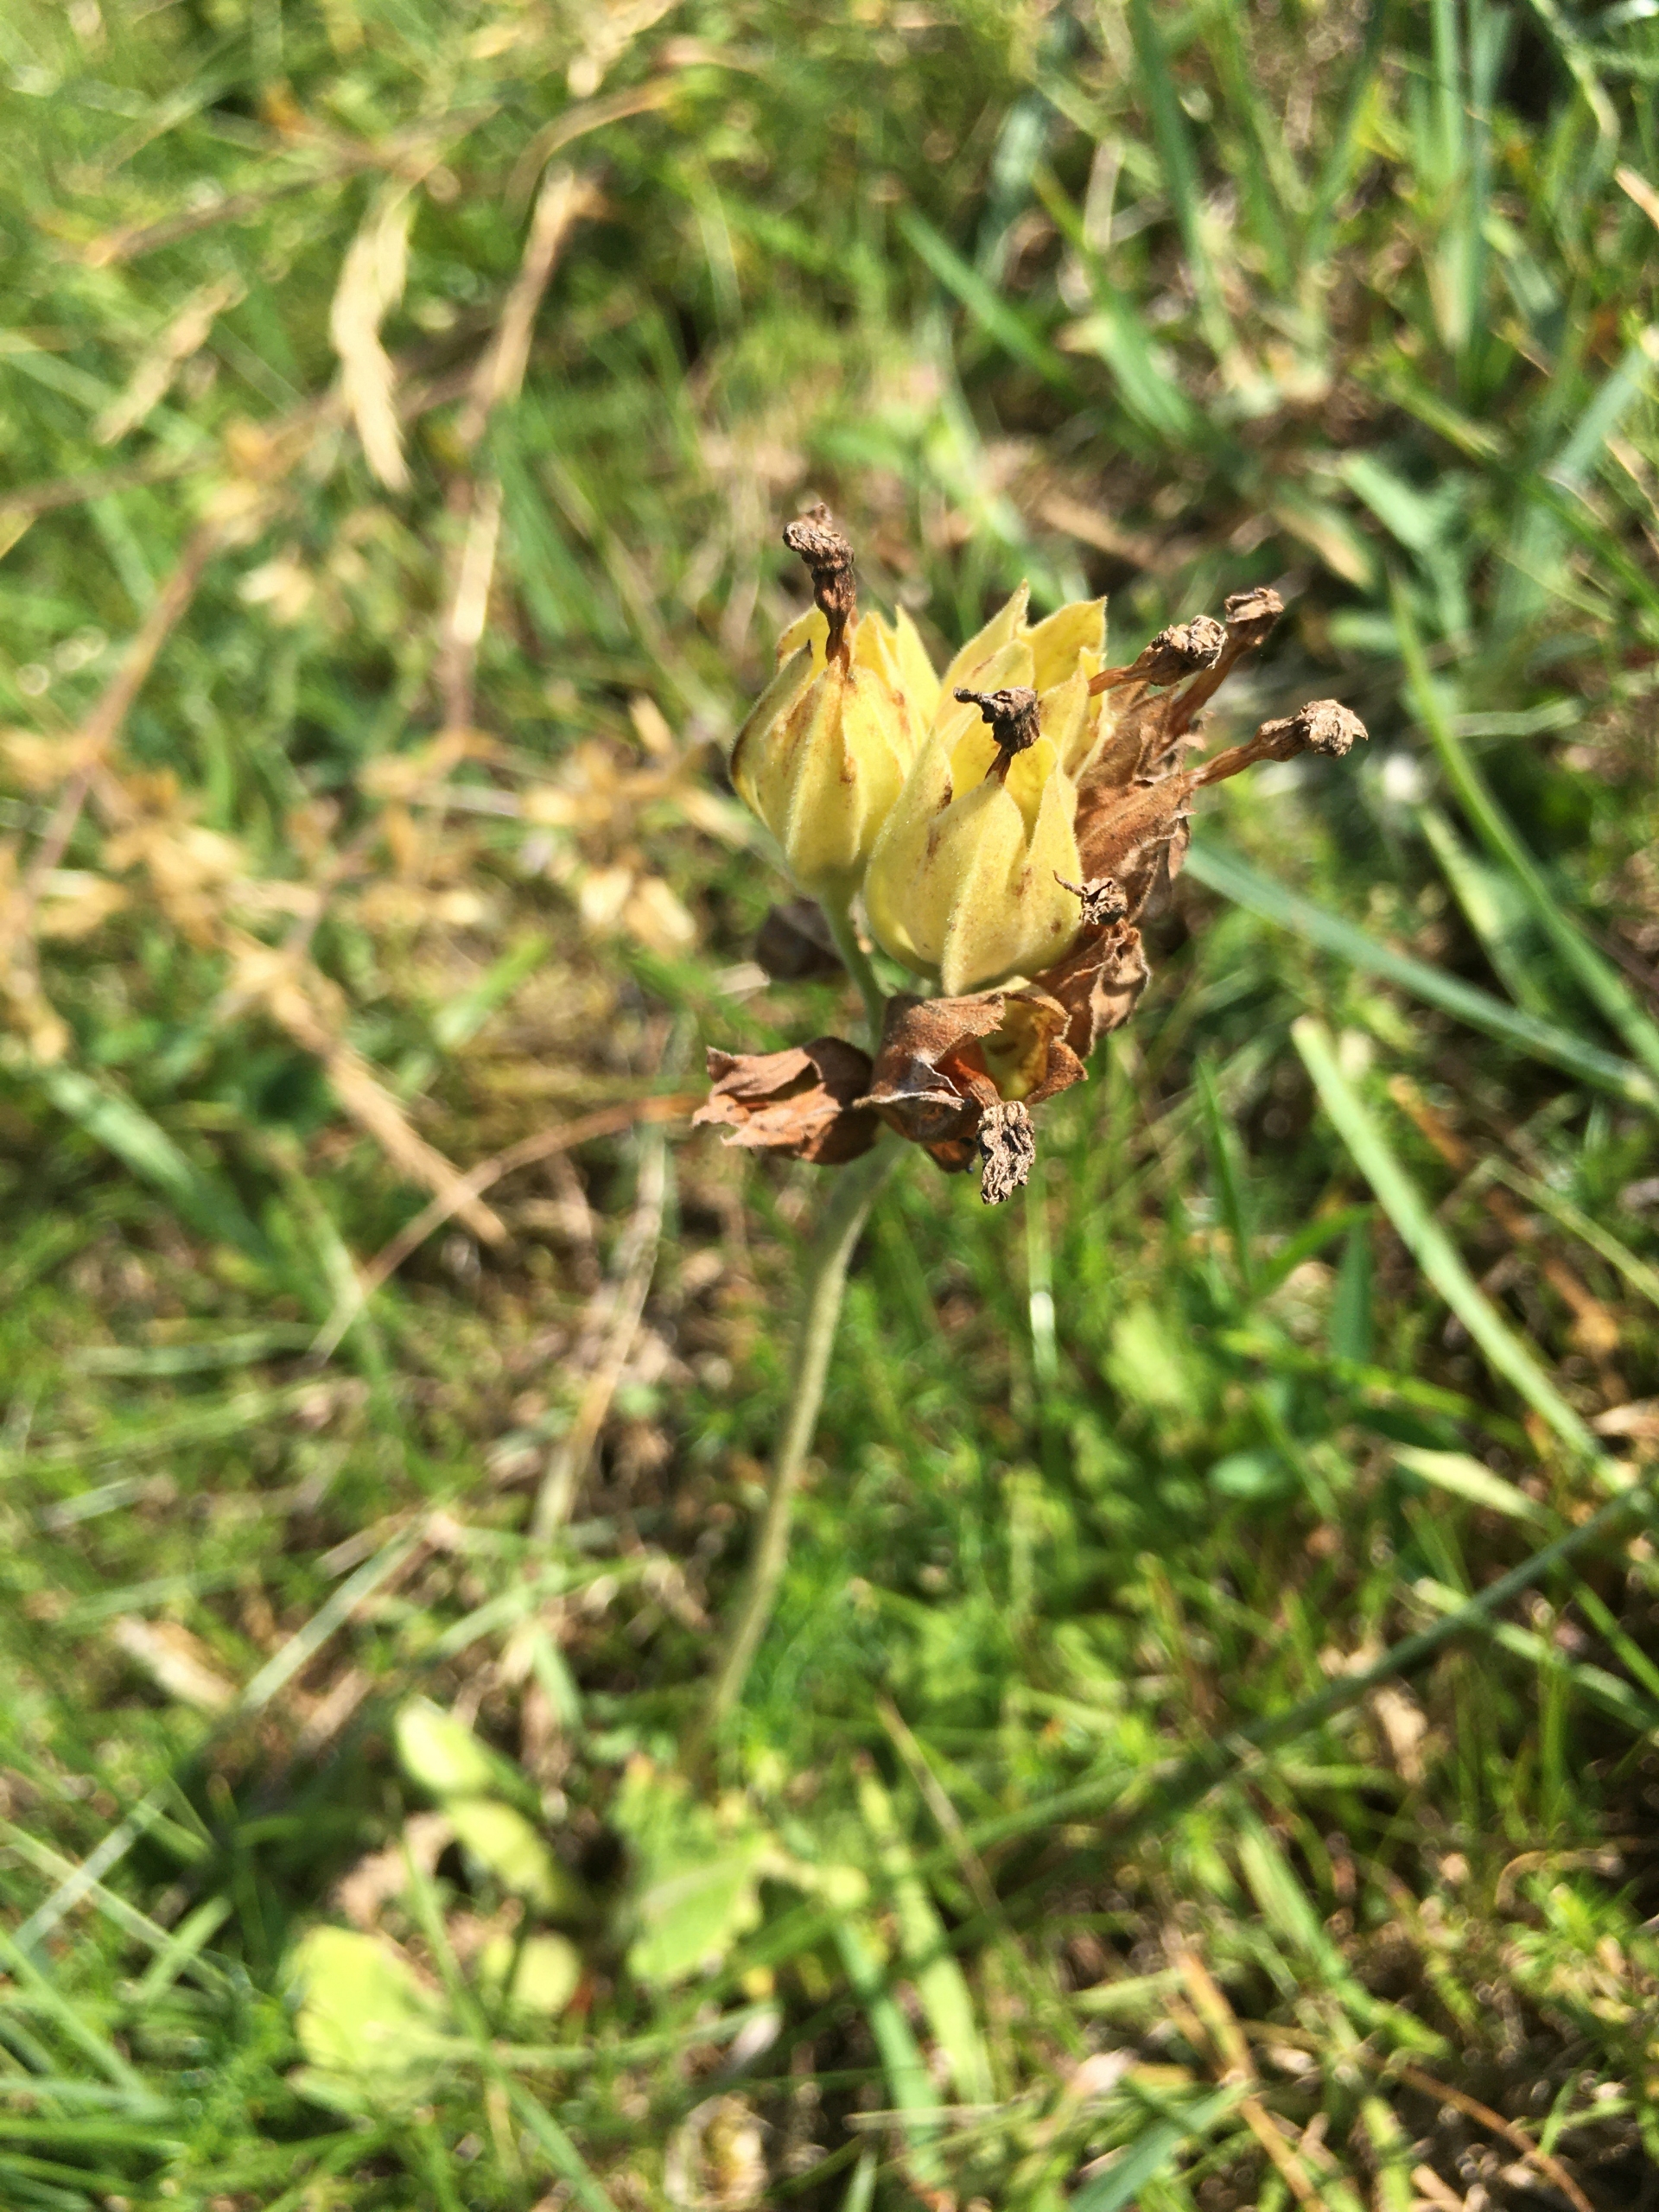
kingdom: Plantae
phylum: Tracheophyta
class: Magnoliopsida
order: Ericales
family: Primulaceae
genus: Primula
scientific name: Primula veris
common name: Hulkravet kodriver
